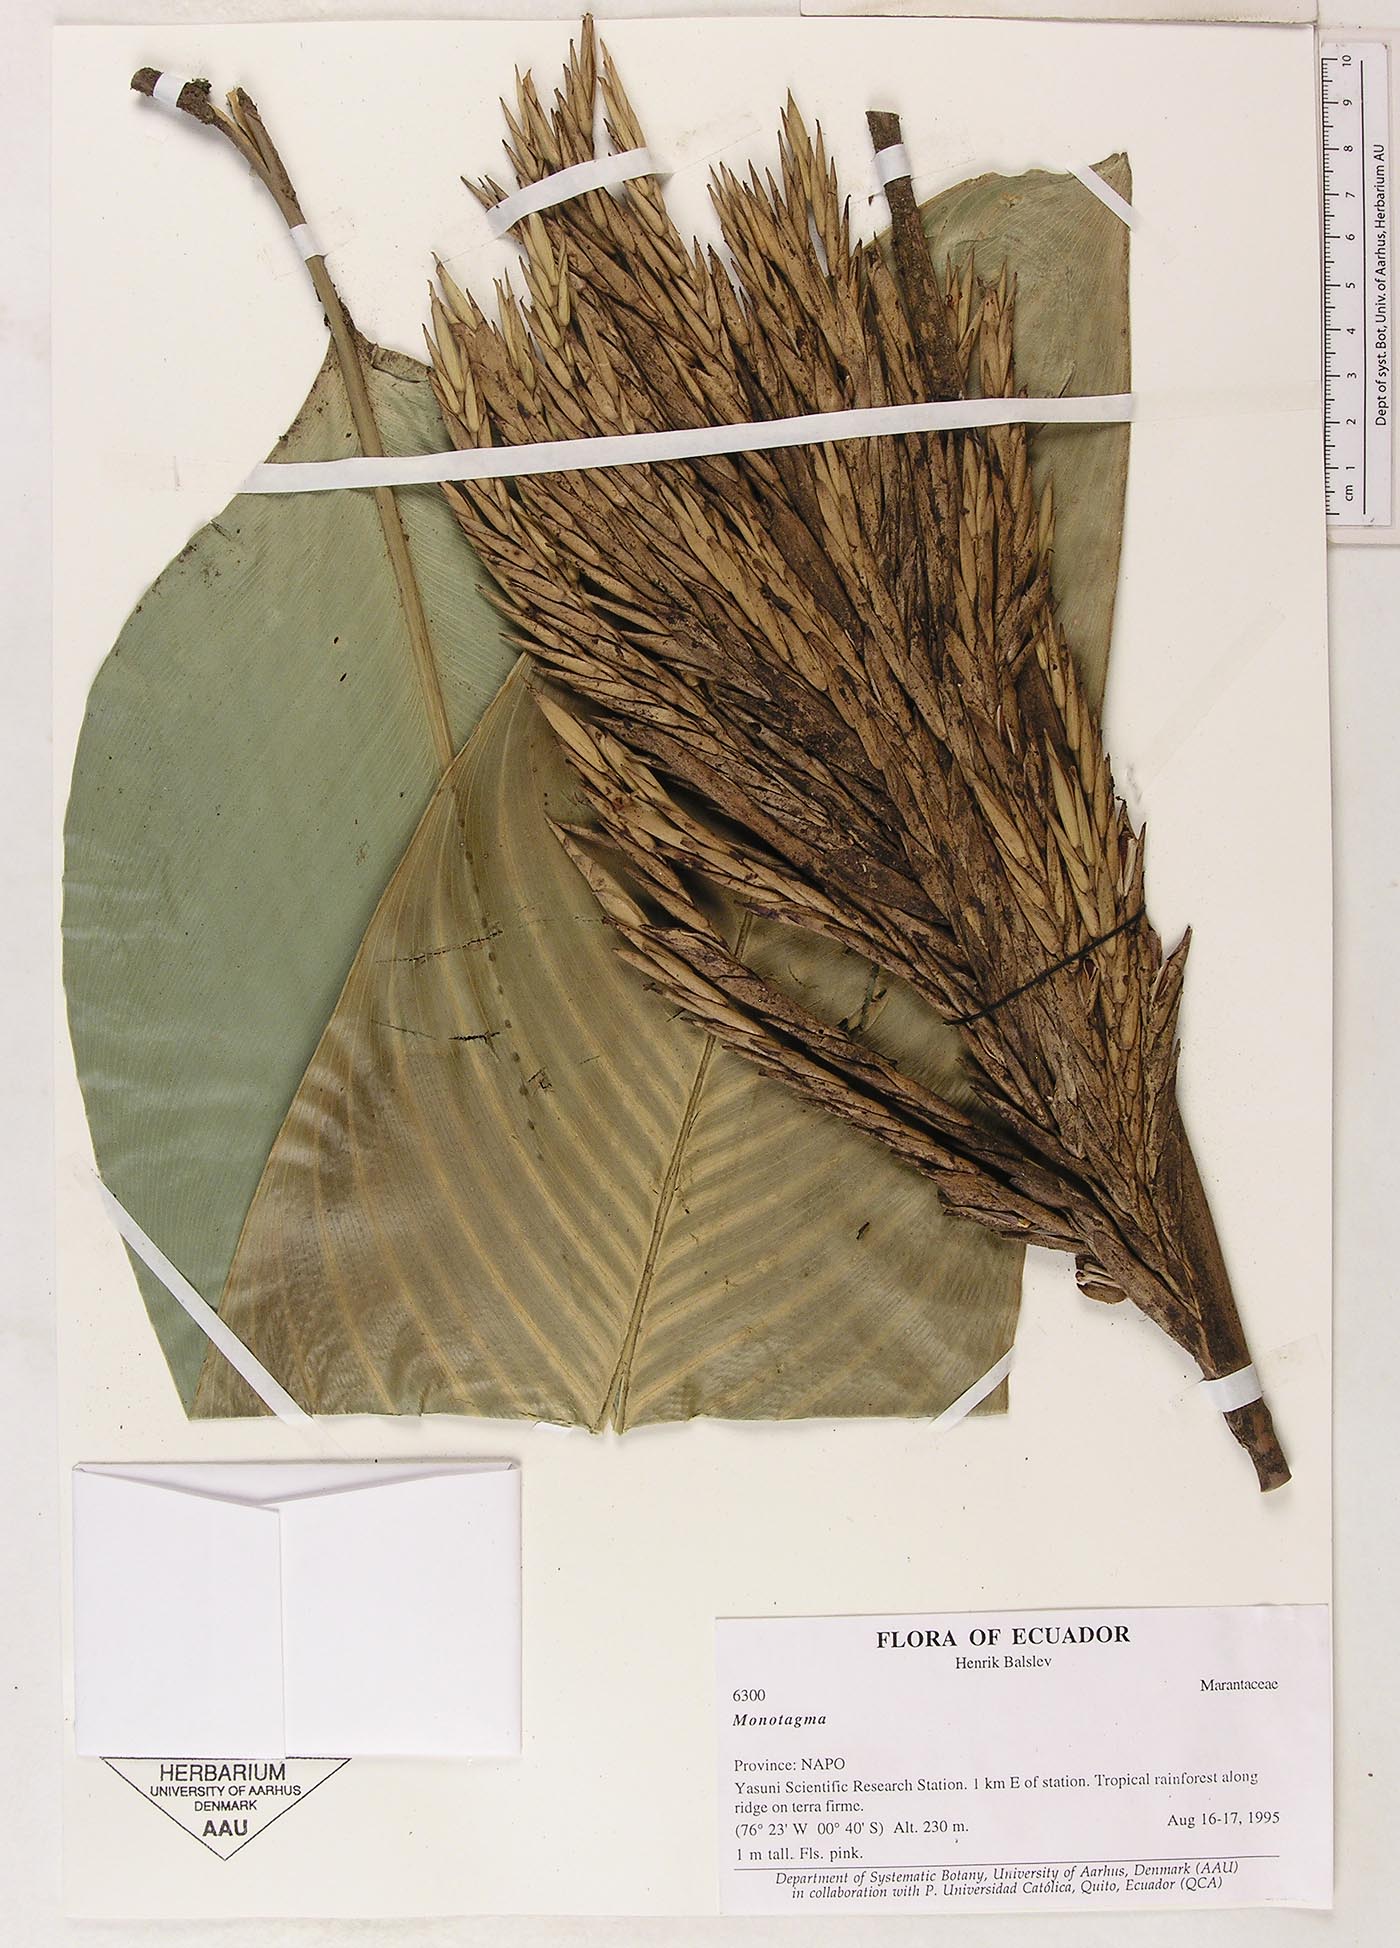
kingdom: Plantae
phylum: Tracheophyta
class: Liliopsida
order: Zingiberales
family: Marantaceae
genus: Monotagma
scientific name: Monotagma
